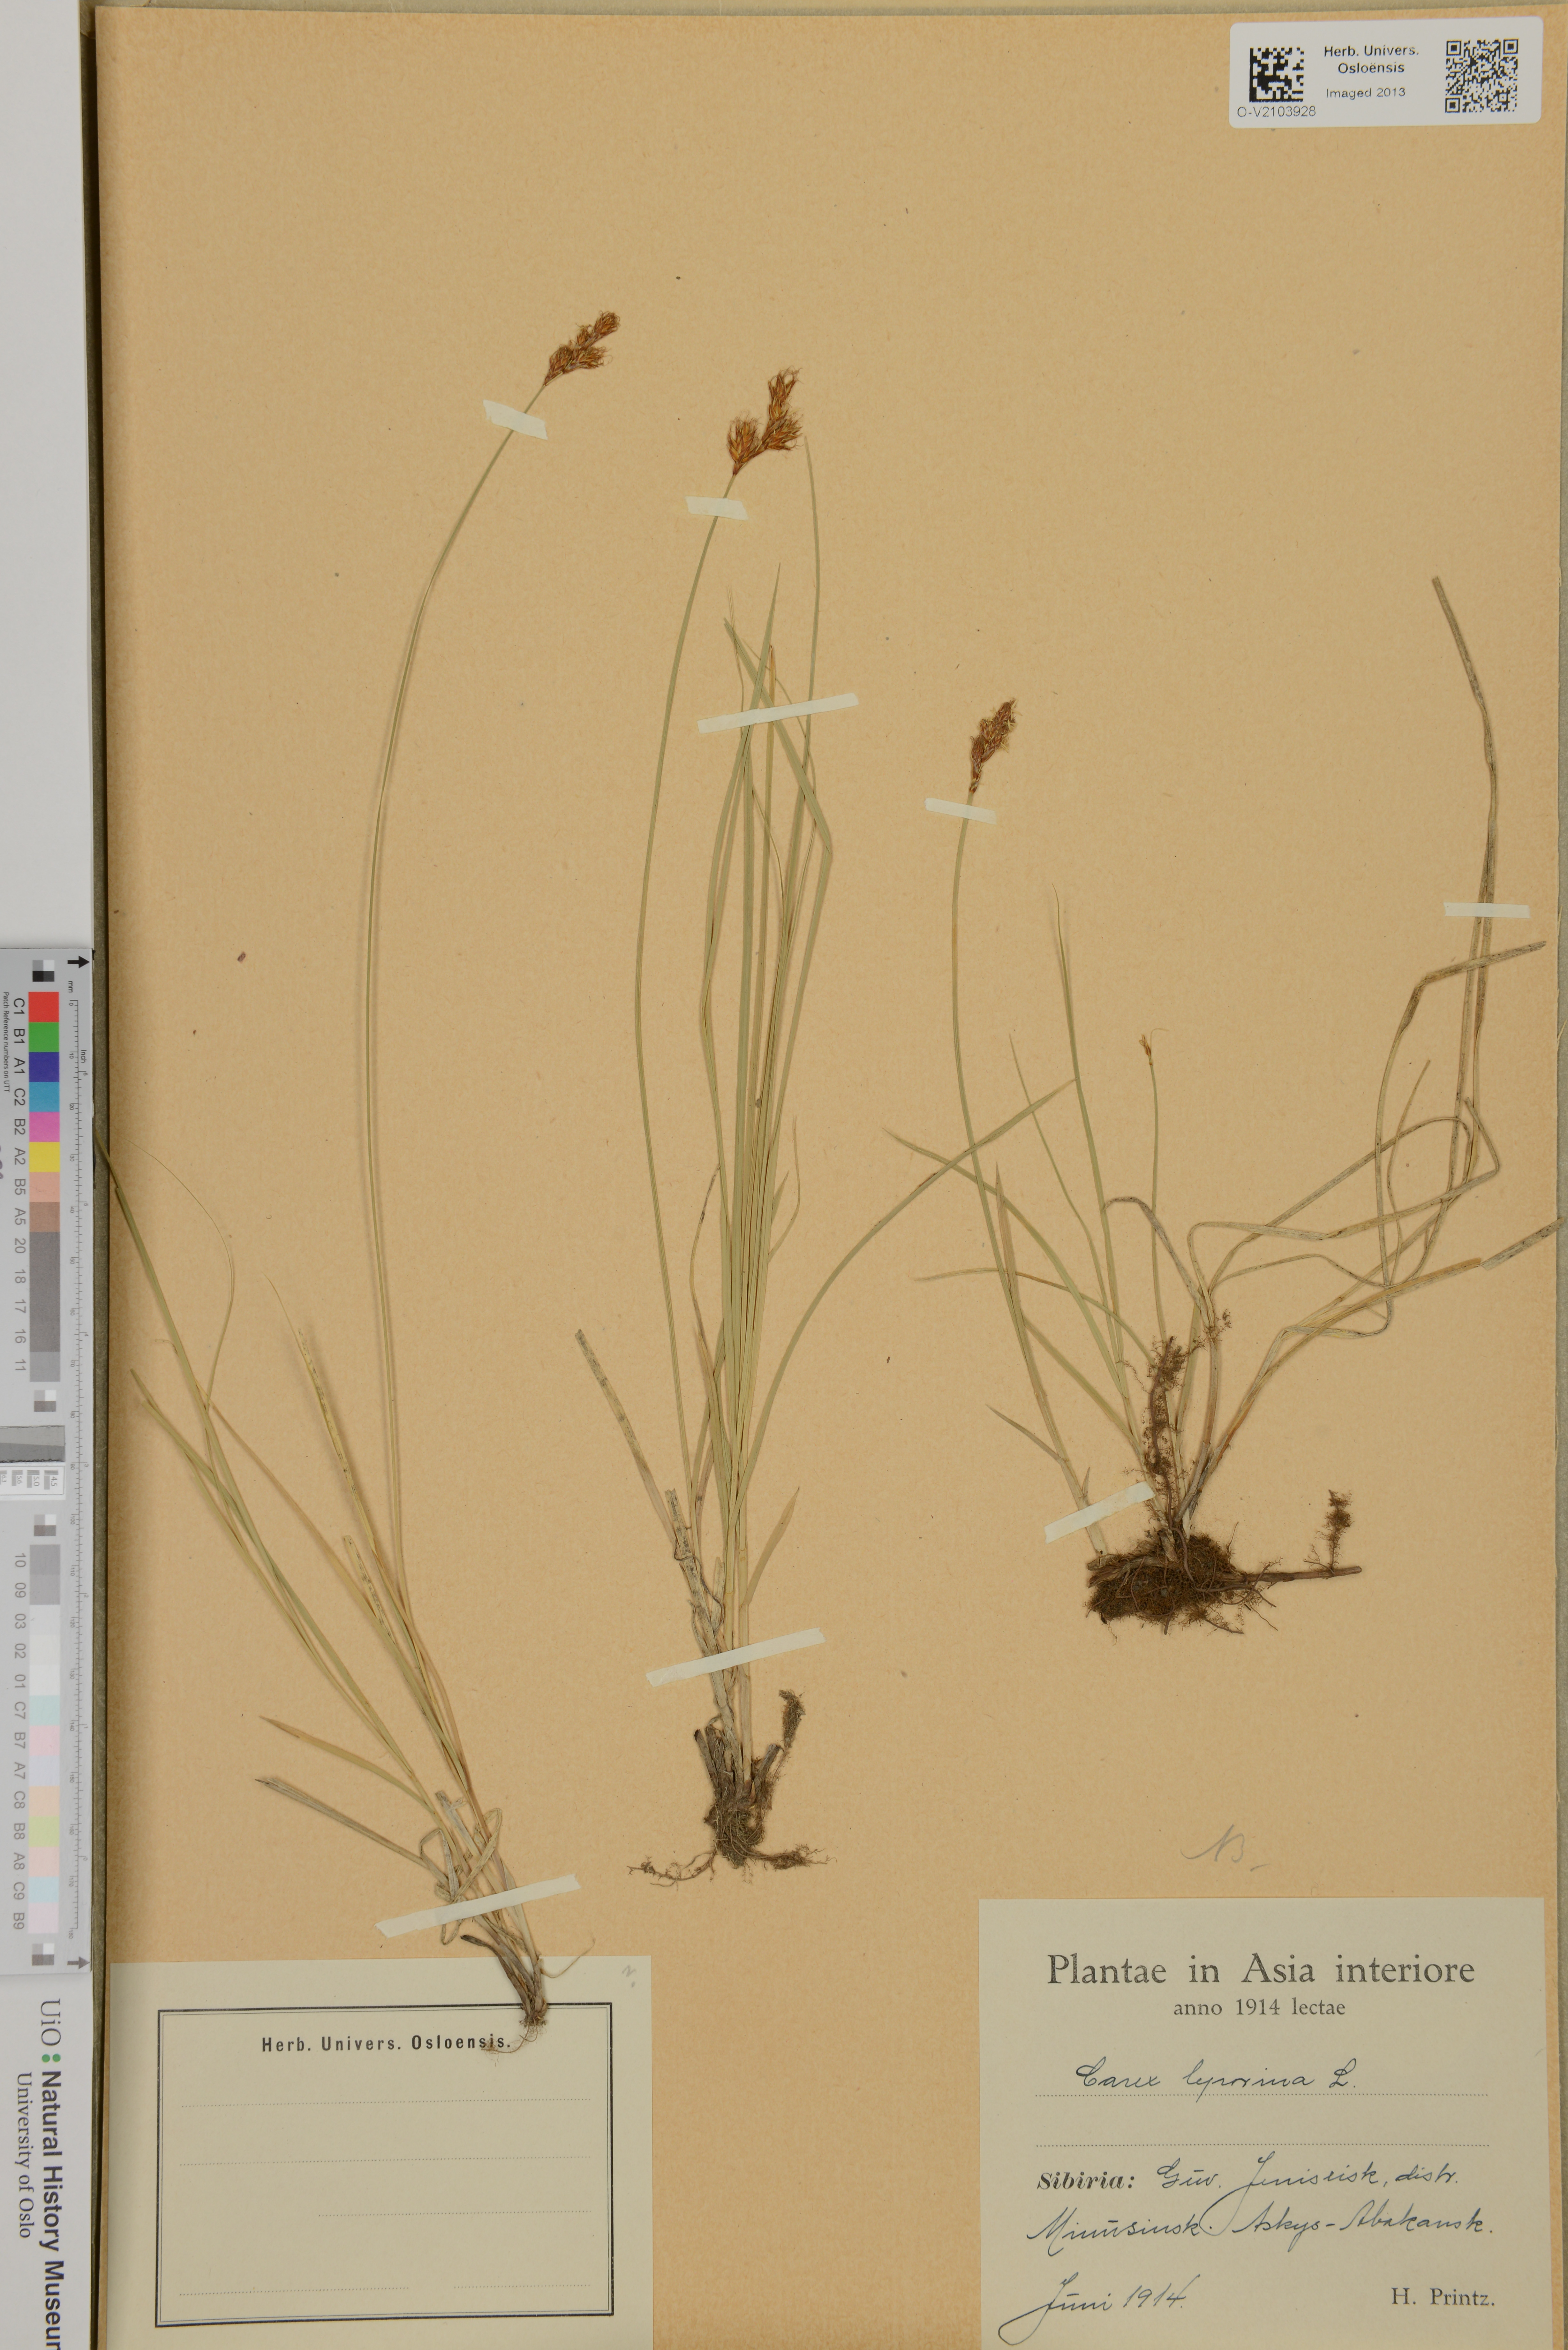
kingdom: Plantae
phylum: Tracheophyta
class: Liliopsida
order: Poales
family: Cyperaceae
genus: Carex
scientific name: Carex leporina
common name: Oval sedge
